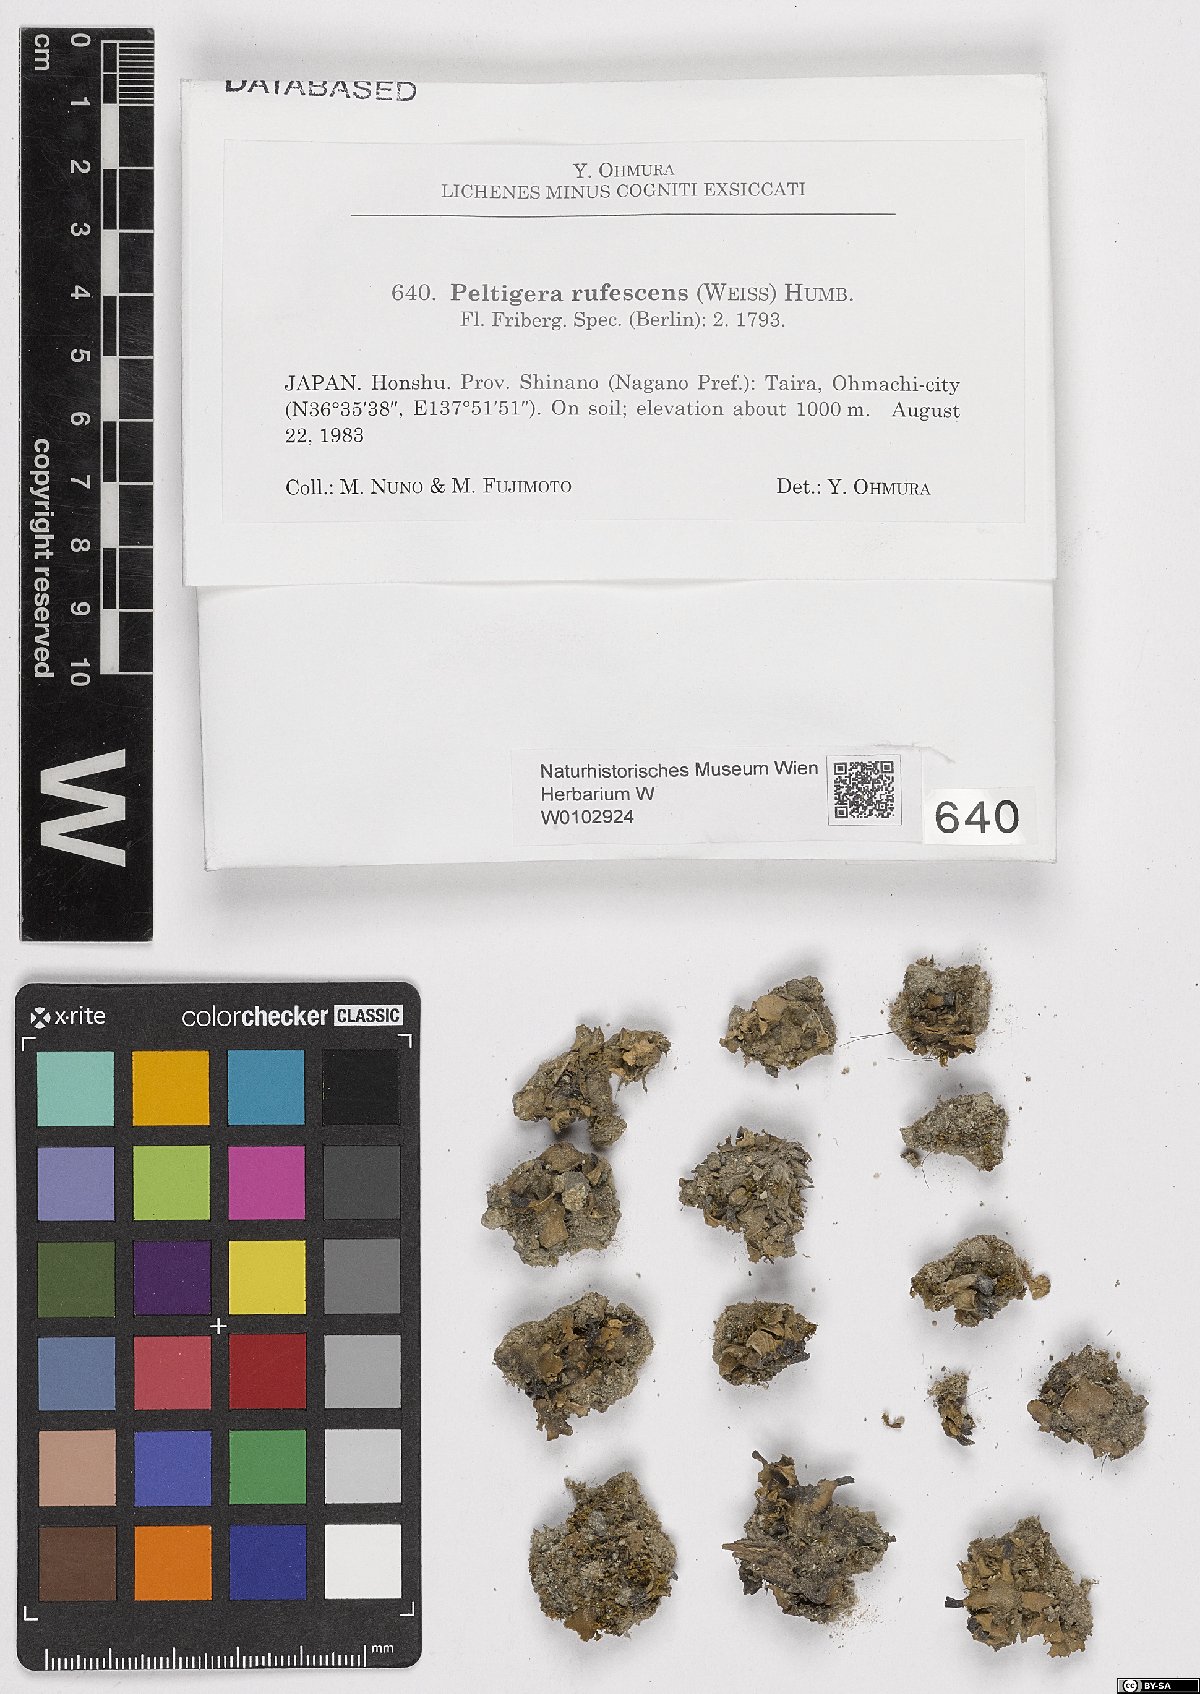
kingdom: Fungi
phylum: Ascomycota
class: Lecanoromycetes
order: Peltigerales
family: Peltigeraceae
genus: Peltigera
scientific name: Peltigera rufescens
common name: Field dog lichen
